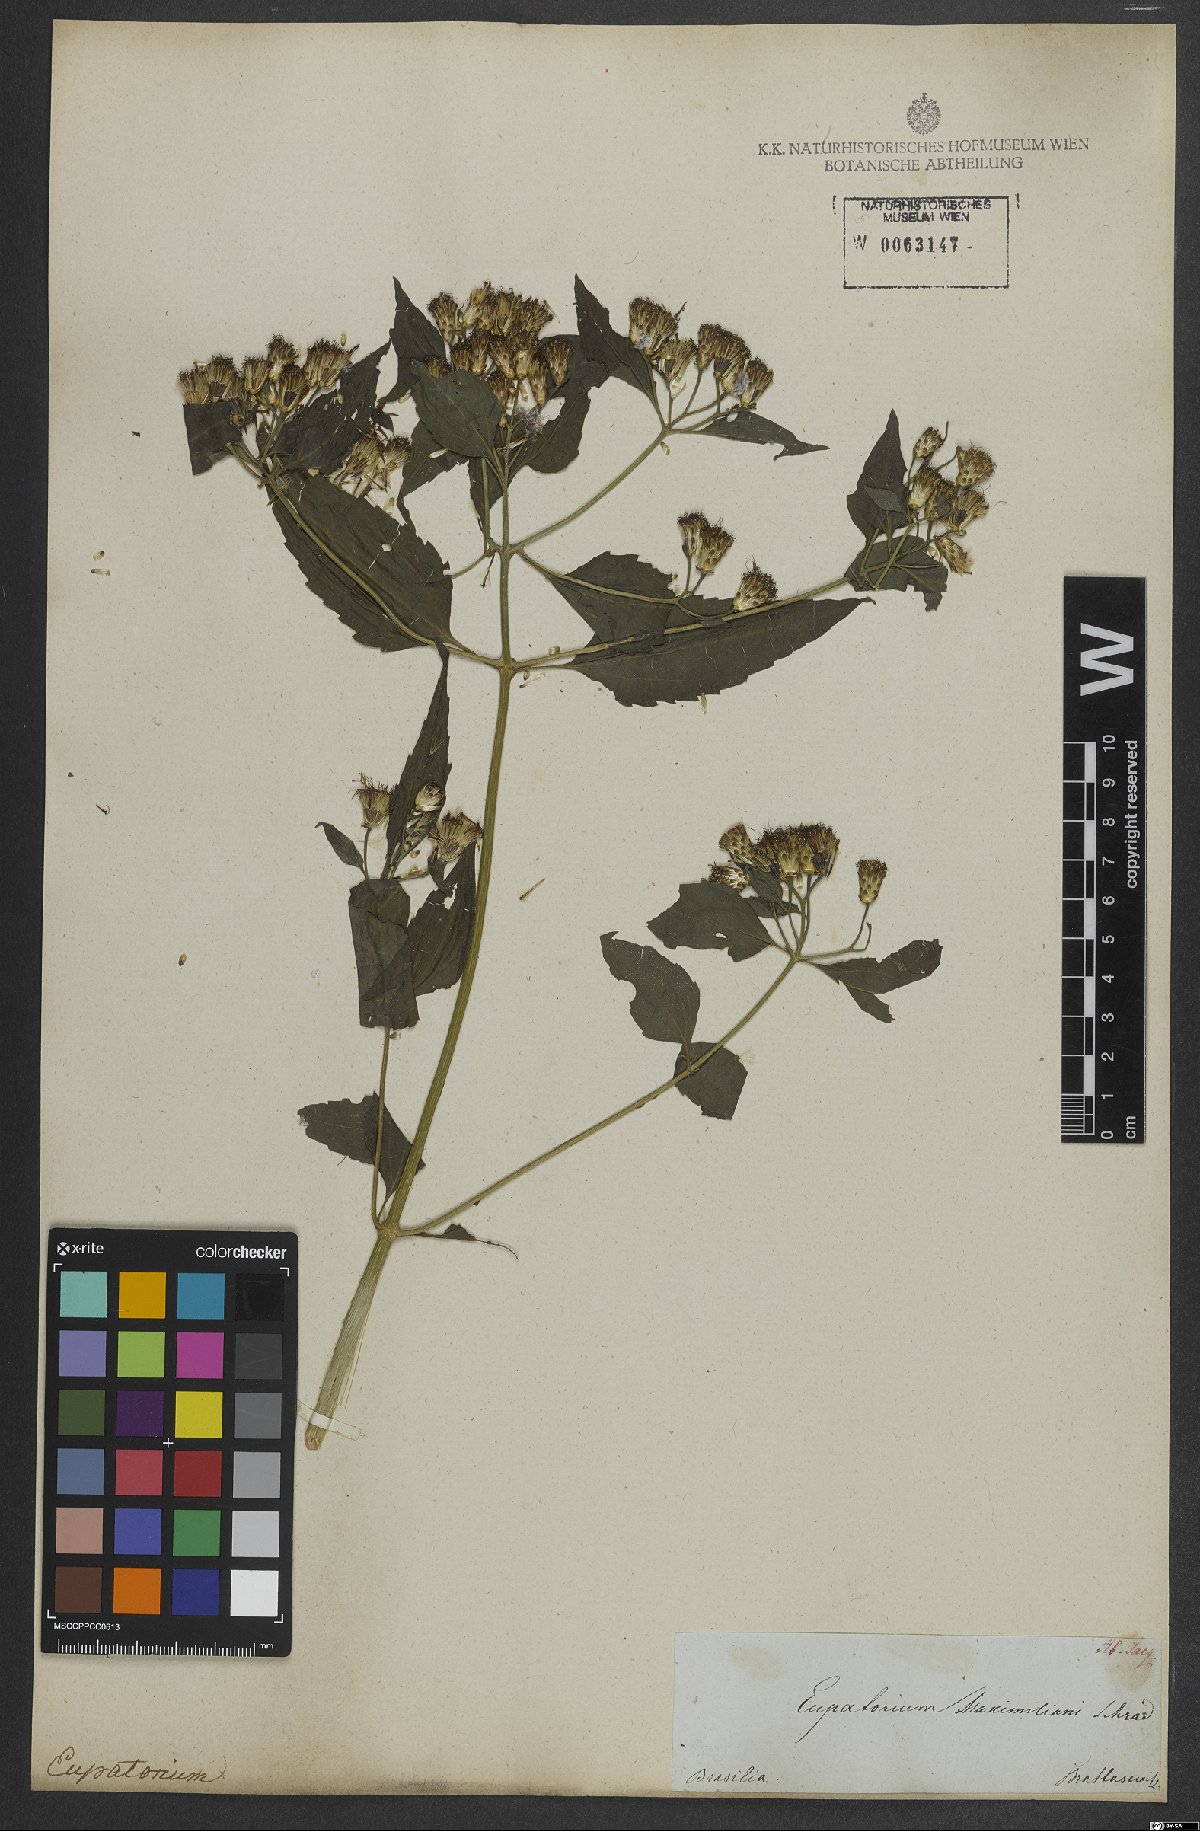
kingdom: Plantae
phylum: Tracheophyta
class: Magnoliopsida
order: Asterales
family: Asteraceae
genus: Chromolaena
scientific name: Chromolaena odorata
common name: Siamweed
